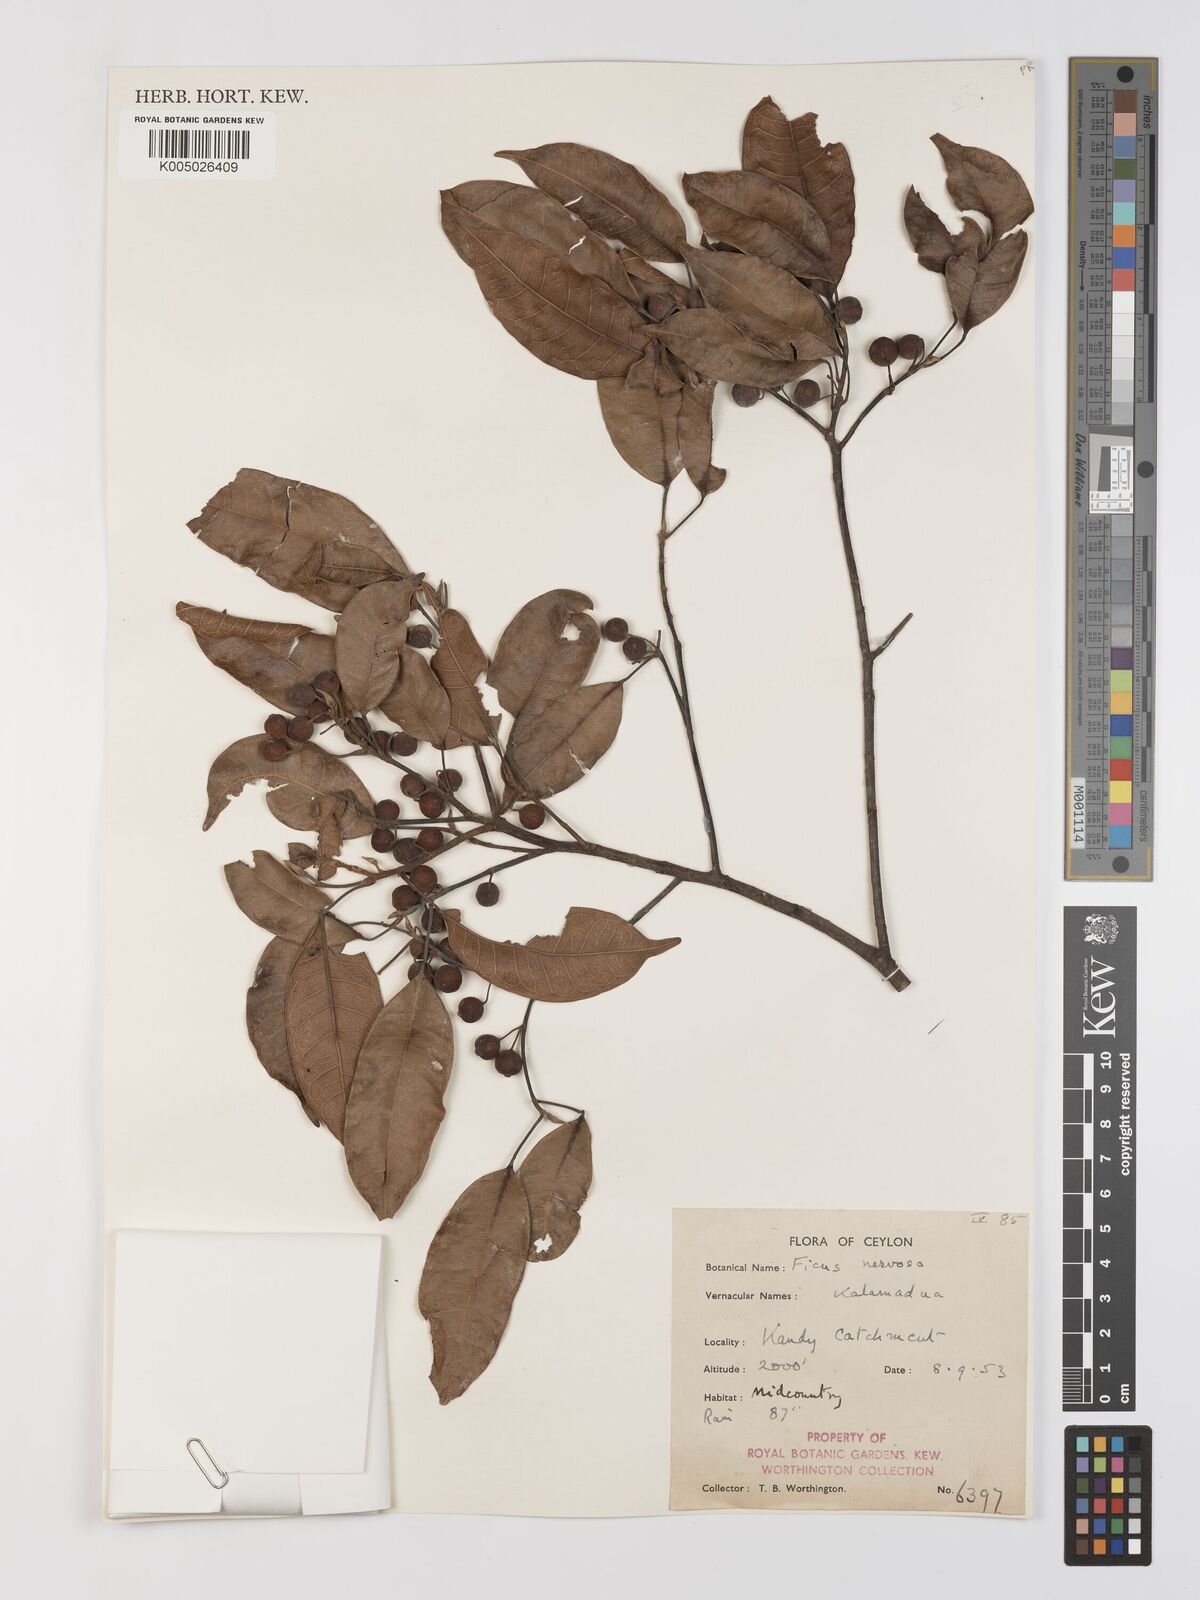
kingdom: Plantae
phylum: Tracheophyta
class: Magnoliopsida
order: Rosales
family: Moraceae
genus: Ficus
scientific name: Ficus nervosa
